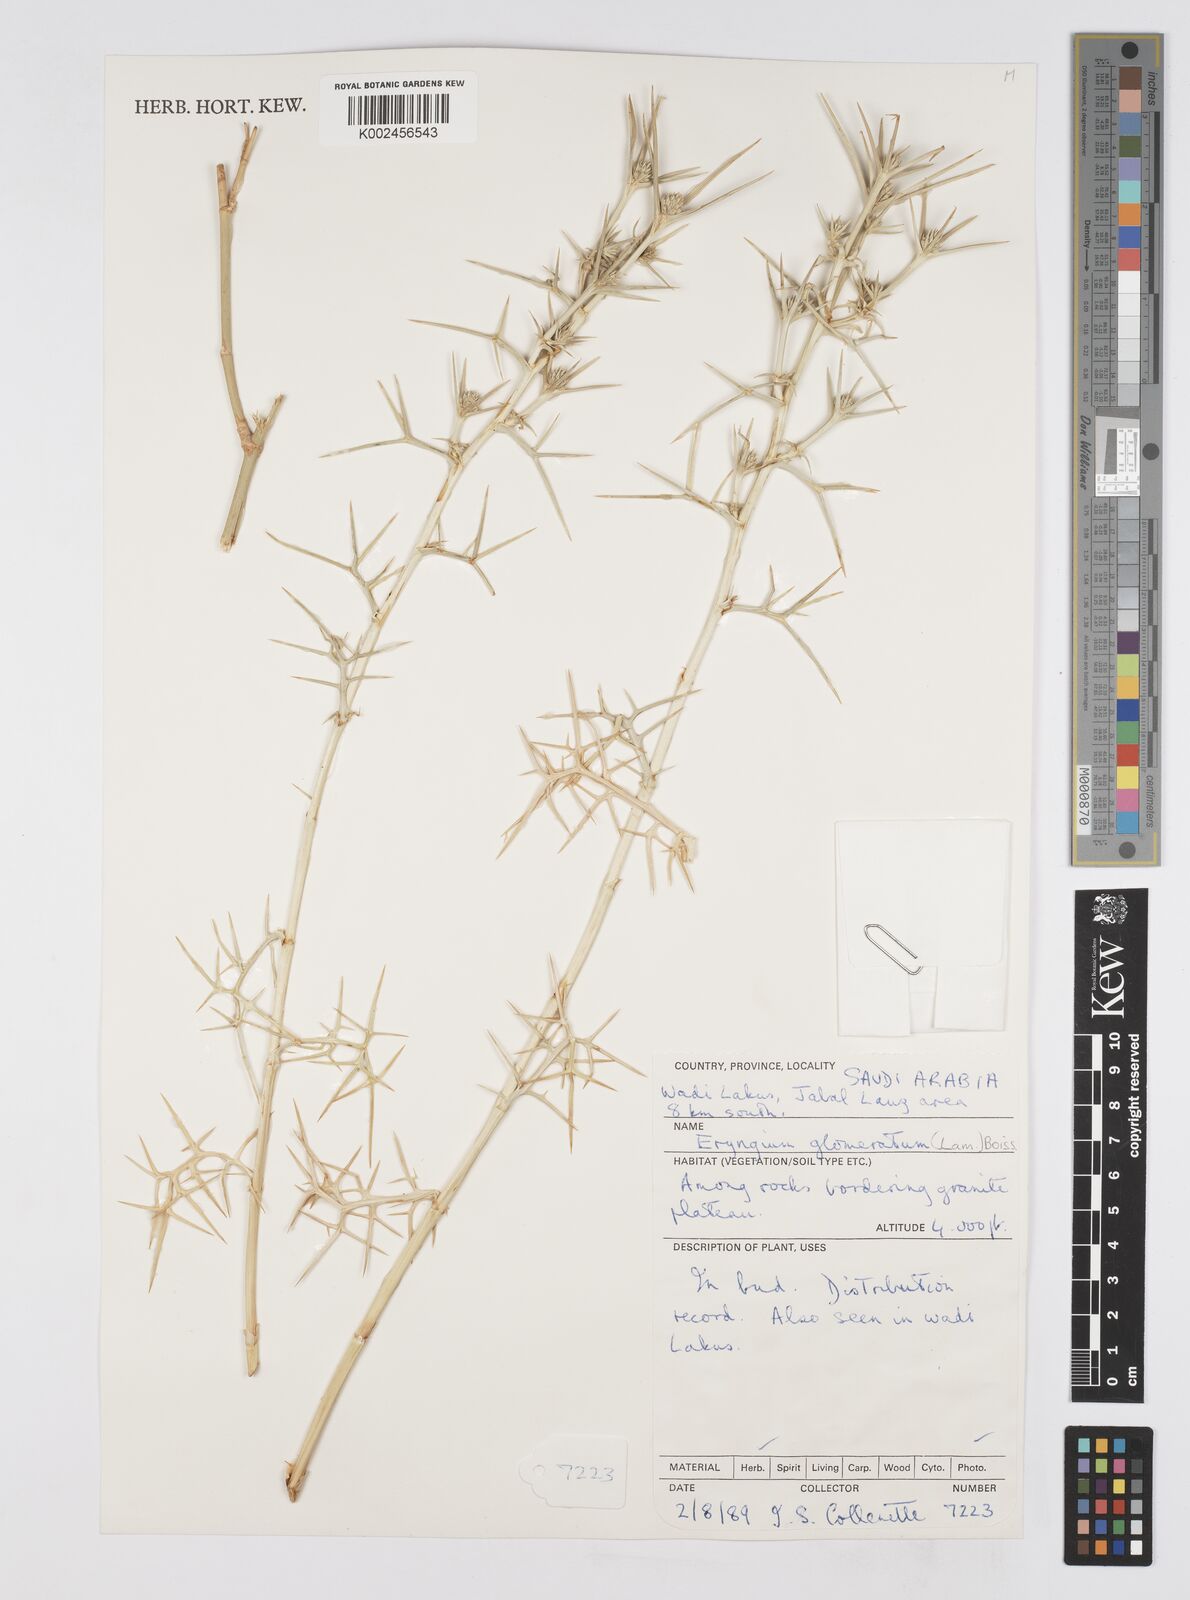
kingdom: Plantae
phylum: Tracheophyta
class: Magnoliopsida
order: Apiales
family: Apiaceae
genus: Eryngium
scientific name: Eryngium glomeratum
